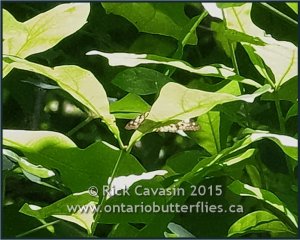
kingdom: Animalia
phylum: Arthropoda
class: Insecta
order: Lepidoptera
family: Nymphalidae
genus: Asterocampa
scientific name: Asterocampa celtis
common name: Hackberry Emperor
